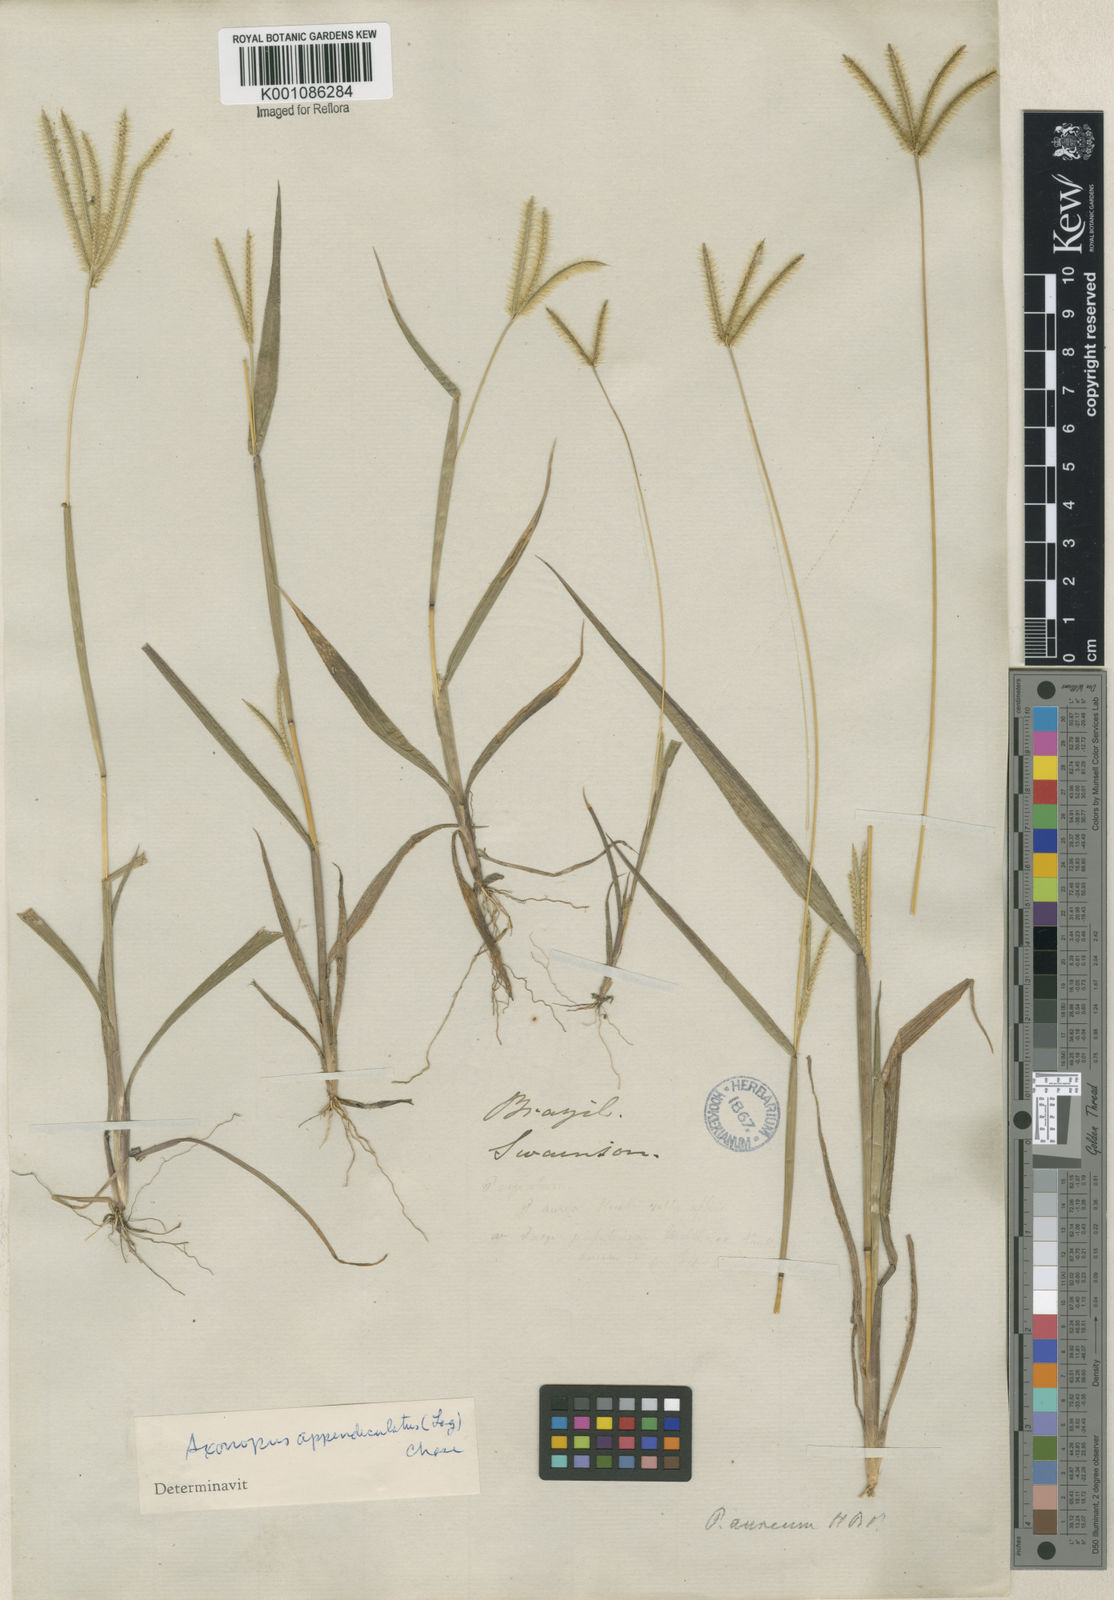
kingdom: Plantae
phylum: Tracheophyta
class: Liliopsida
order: Poales
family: Poaceae
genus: Axonopus
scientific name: Axonopus chrysoblepharis
